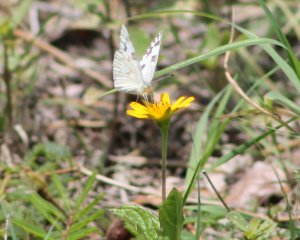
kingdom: Animalia
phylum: Arthropoda
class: Insecta
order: Lepidoptera
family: Pieridae
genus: Pontia
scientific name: Pontia protodice
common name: Checkered White
